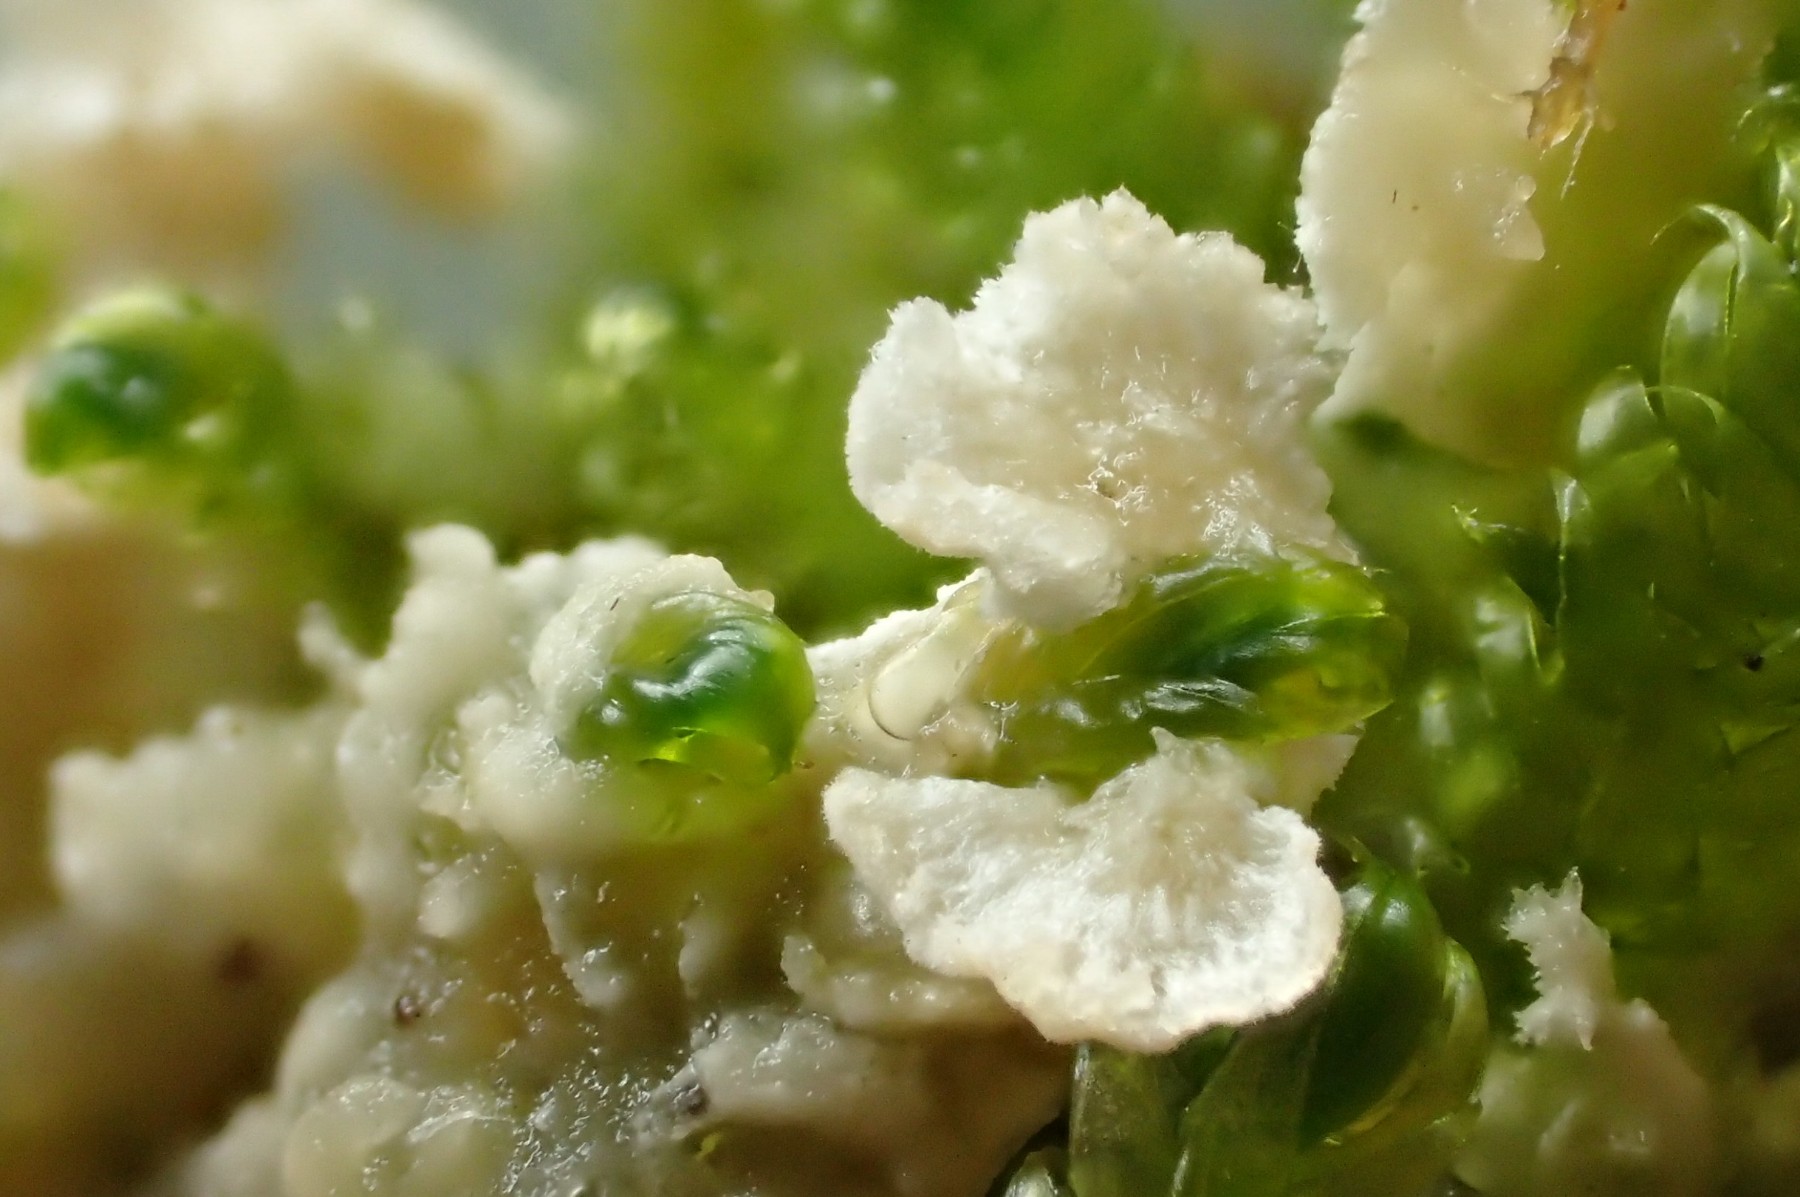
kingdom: Fungi
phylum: Basidiomycota
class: Agaricomycetes
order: Agaricales
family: Hygrophoraceae
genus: Arrhenia
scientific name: Arrhenia retiruga
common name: lille fontænehat
